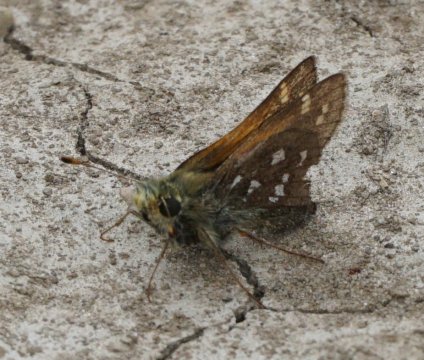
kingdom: Animalia
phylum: Arthropoda
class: Insecta
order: Lepidoptera
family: Hesperiidae
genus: Hesperia
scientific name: Hesperia
